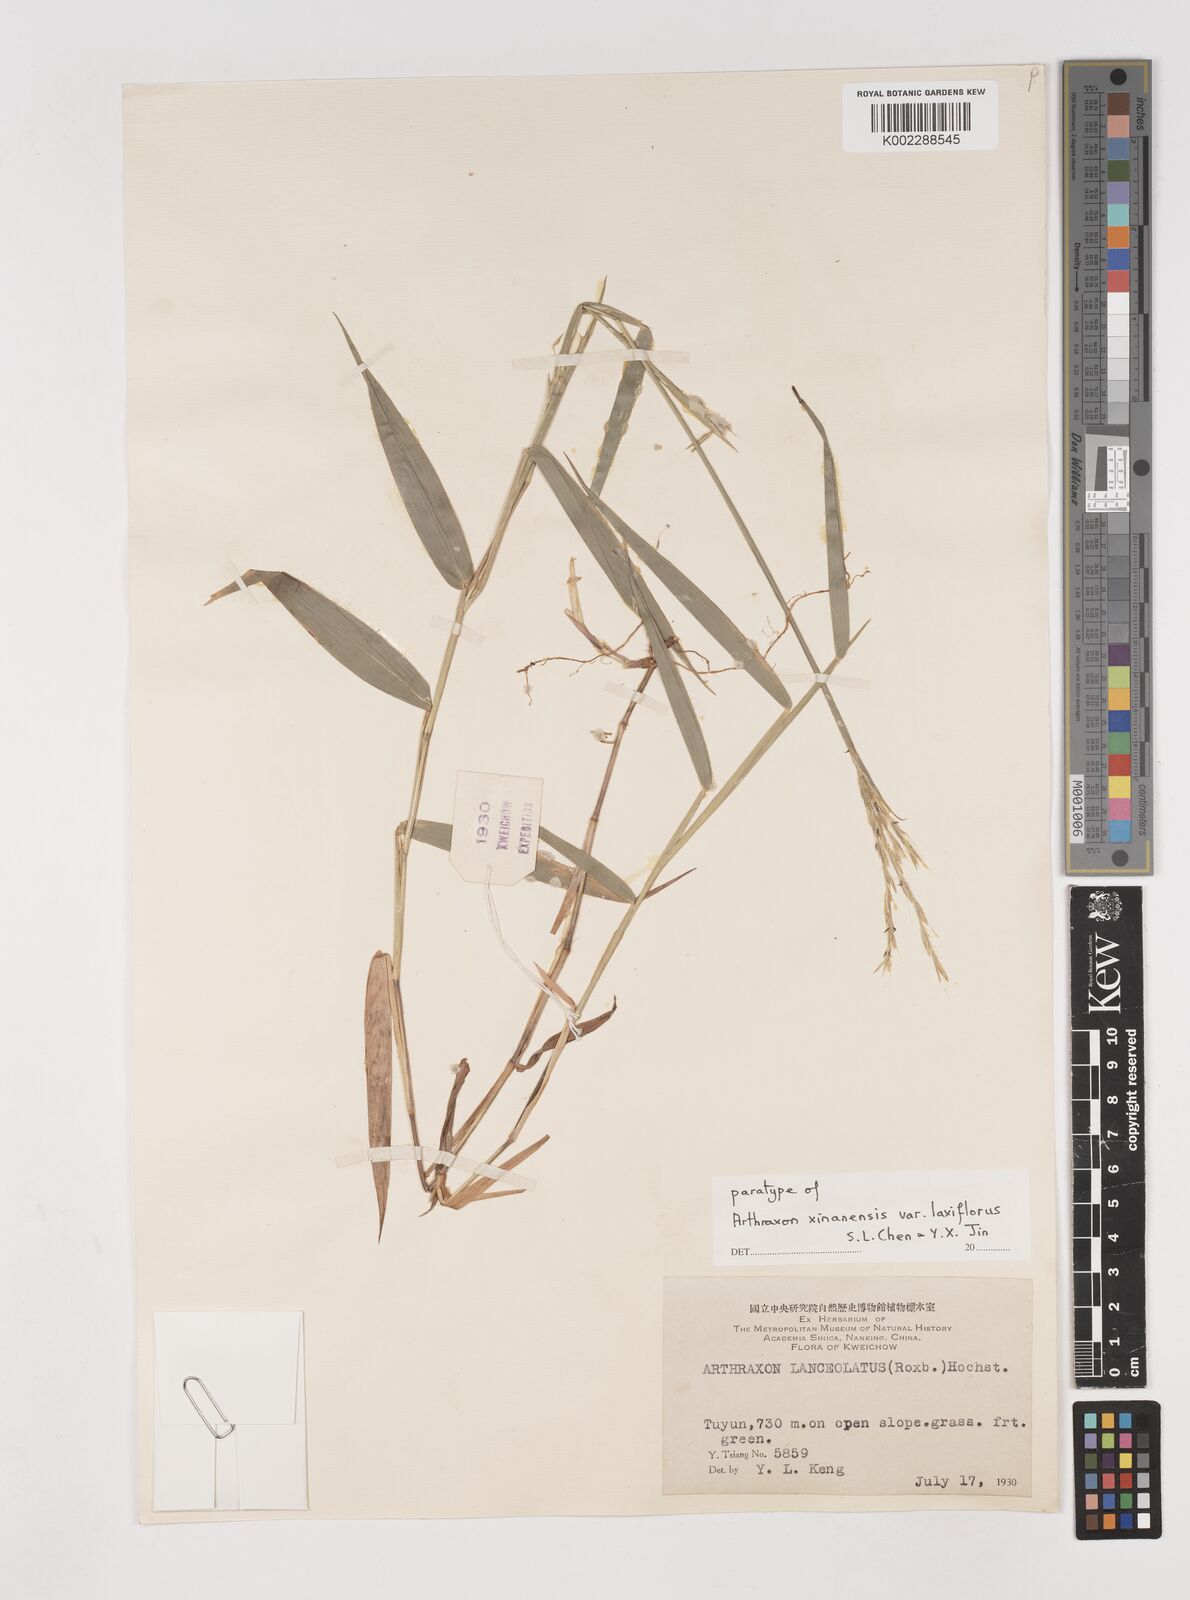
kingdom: Plantae
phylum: Tracheophyta
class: Liliopsida
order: Poales
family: Poaceae
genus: Arthraxon
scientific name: Arthraxon epectinatus
